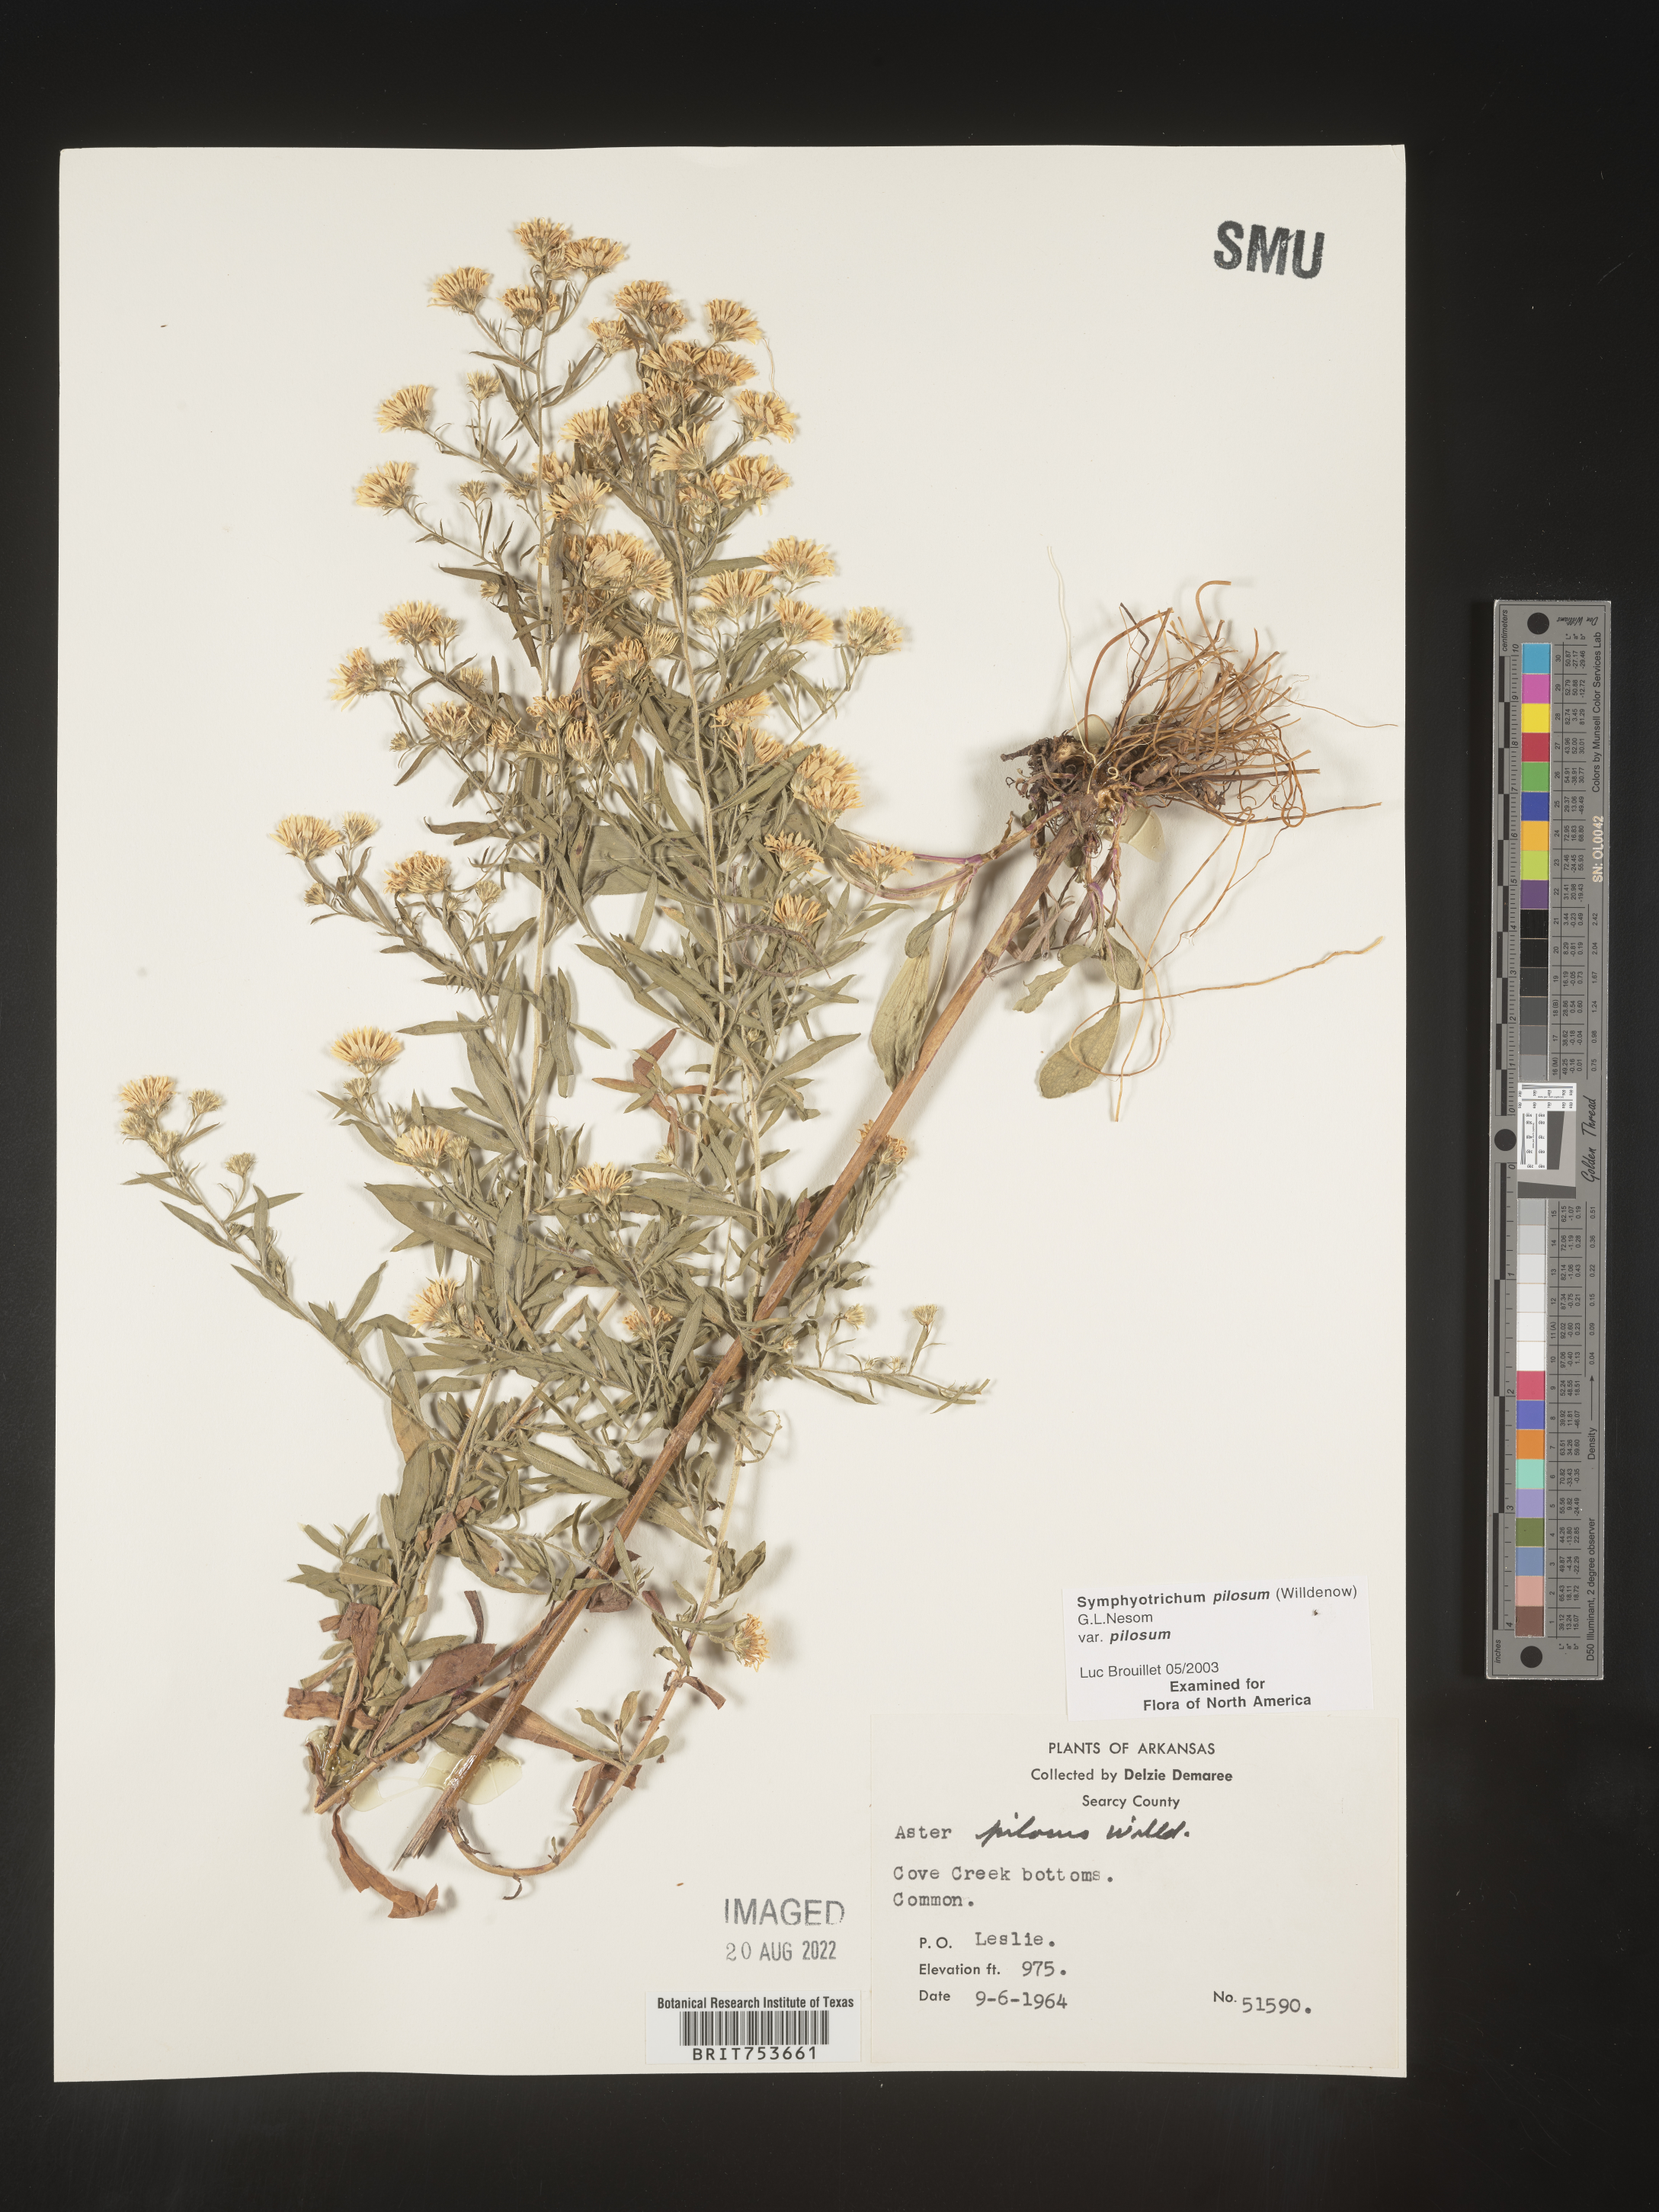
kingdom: Plantae
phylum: Tracheophyta
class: Magnoliopsida
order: Asterales
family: Asteraceae
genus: Symphyotrichum
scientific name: Symphyotrichum pilosum
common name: Awl aster
